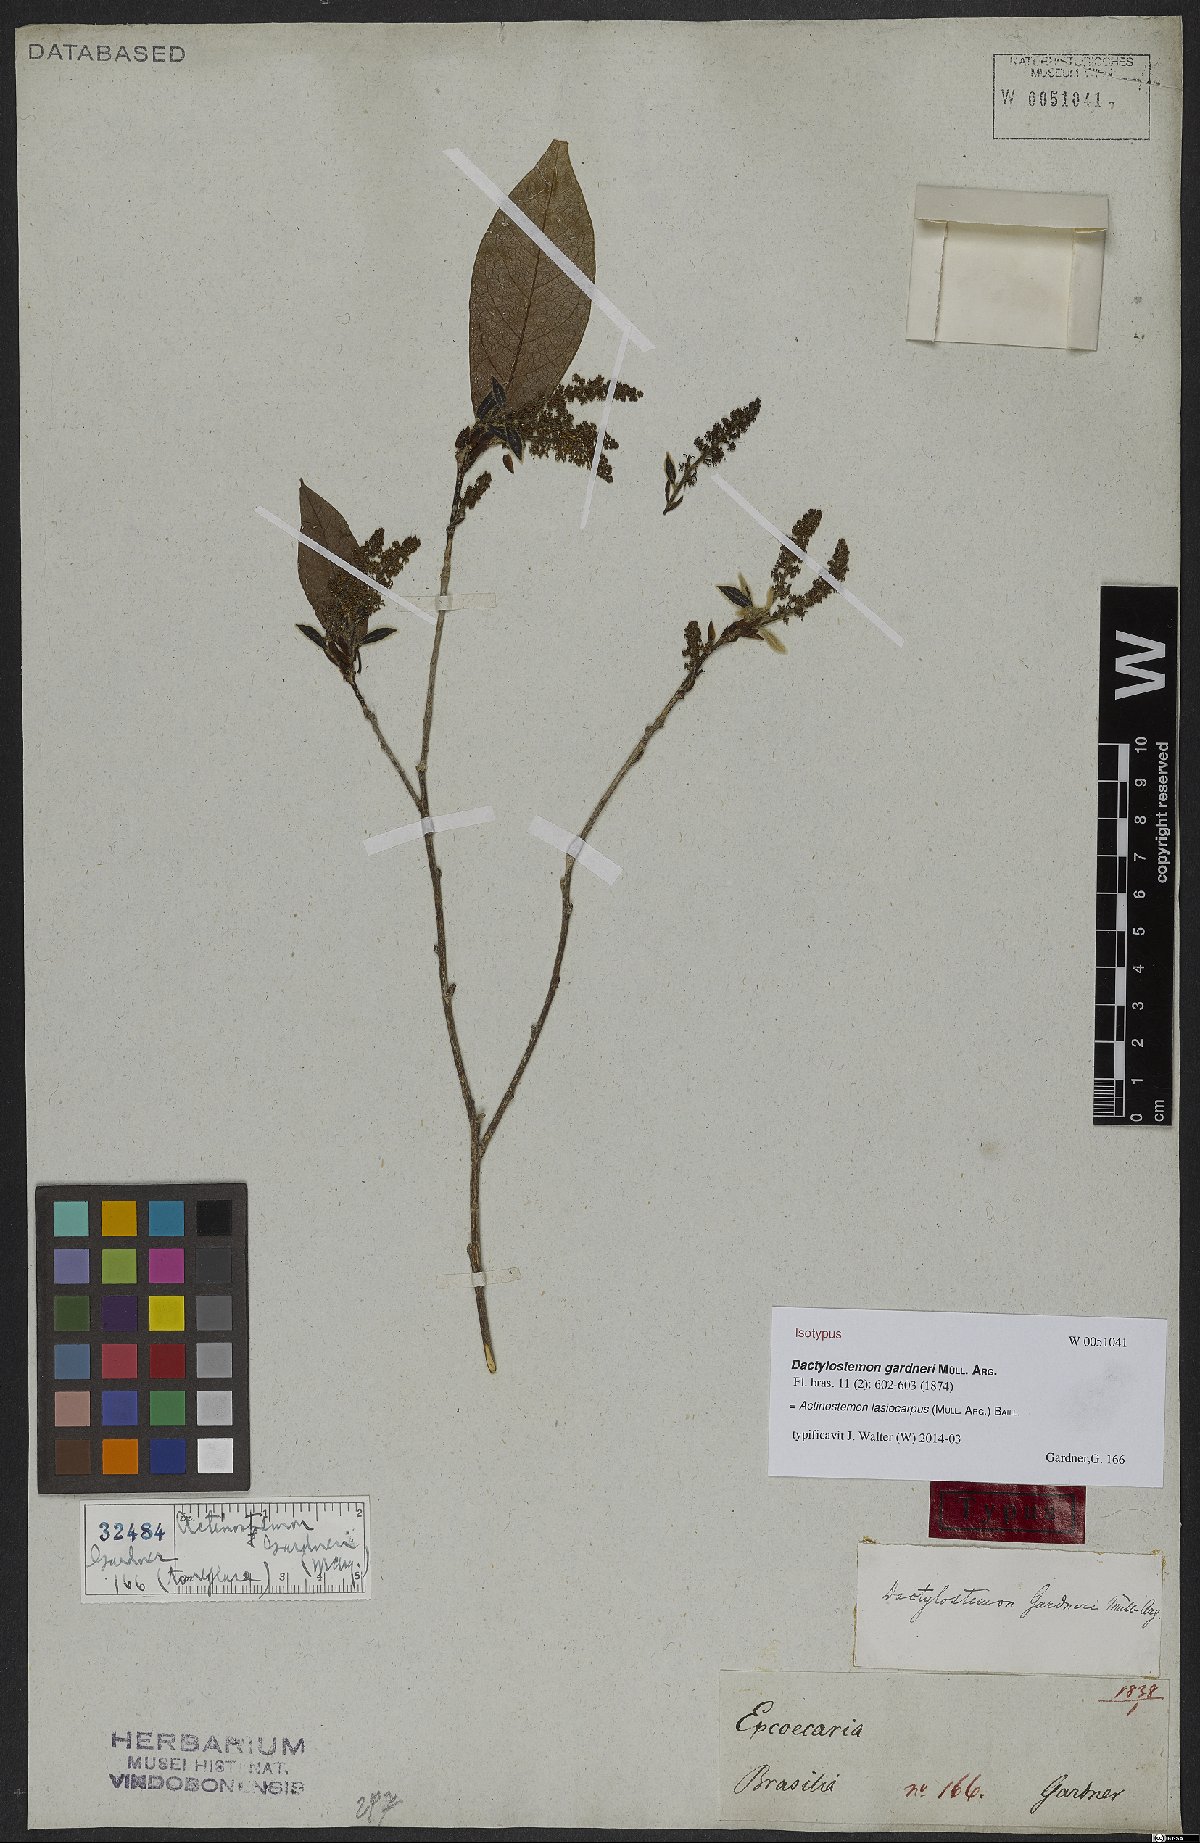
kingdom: Plantae
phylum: Tracheophyta
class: Magnoliopsida
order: Malpighiales
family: Euphorbiaceae
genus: Actinostemon
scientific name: Actinostemon lasiocarpus
